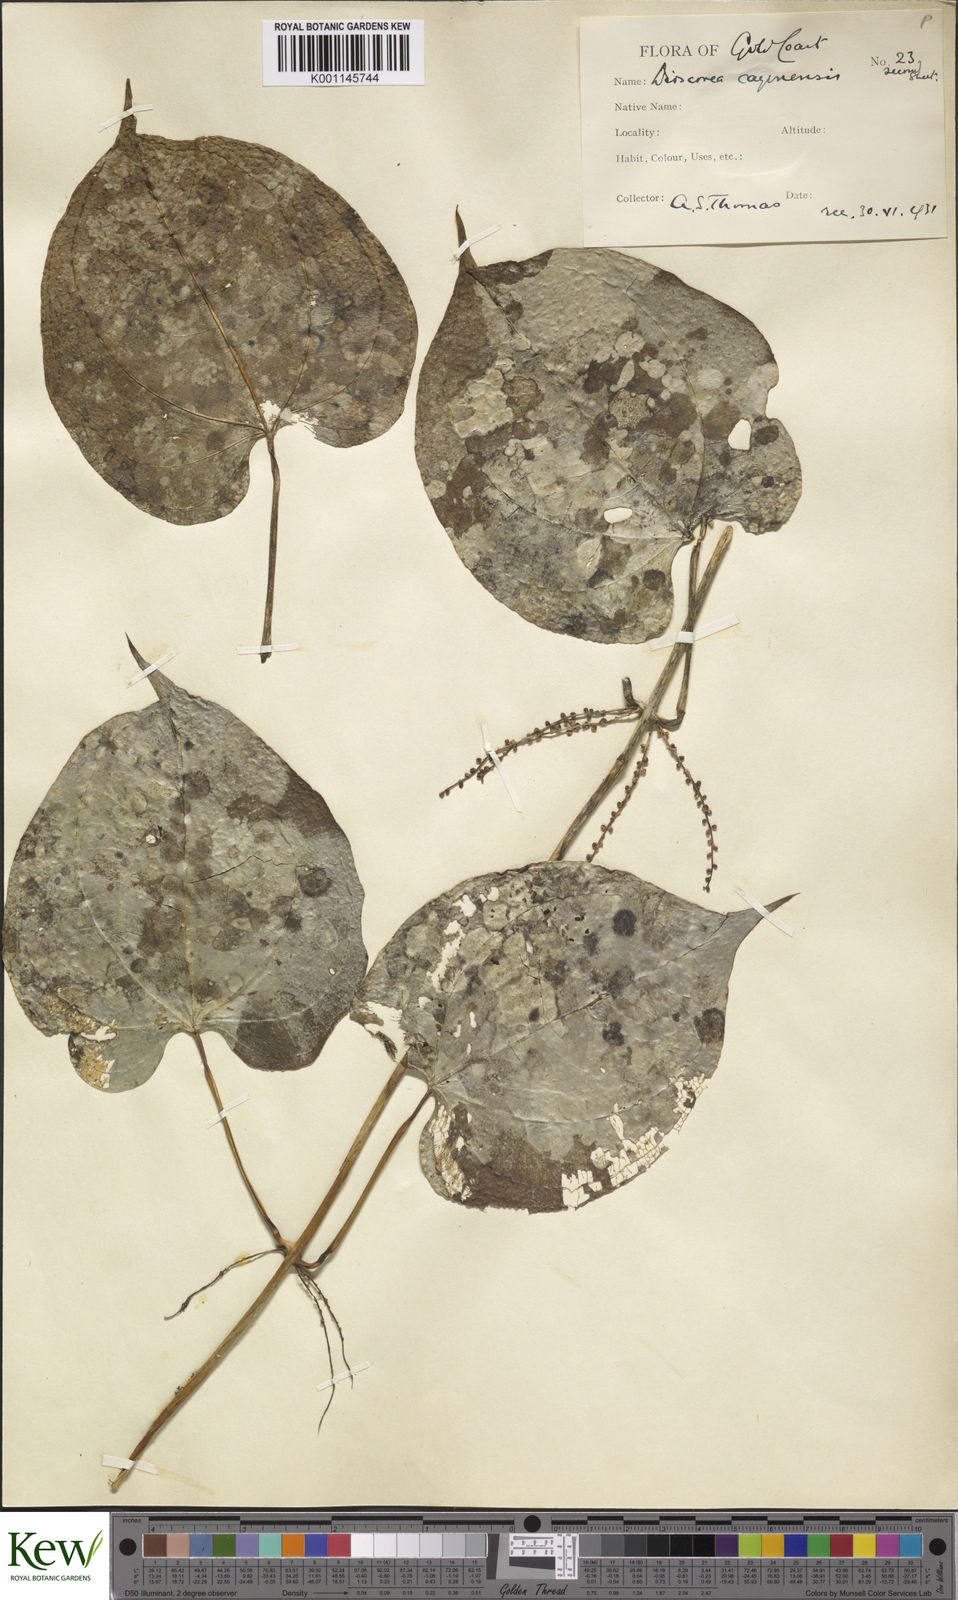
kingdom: Plantae
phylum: Tracheophyta
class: Liliopsida
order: Dioscoreales
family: Dioscoreaceae
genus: Dioscorea
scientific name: Dioscorea cayenensis
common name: Attoto yam
